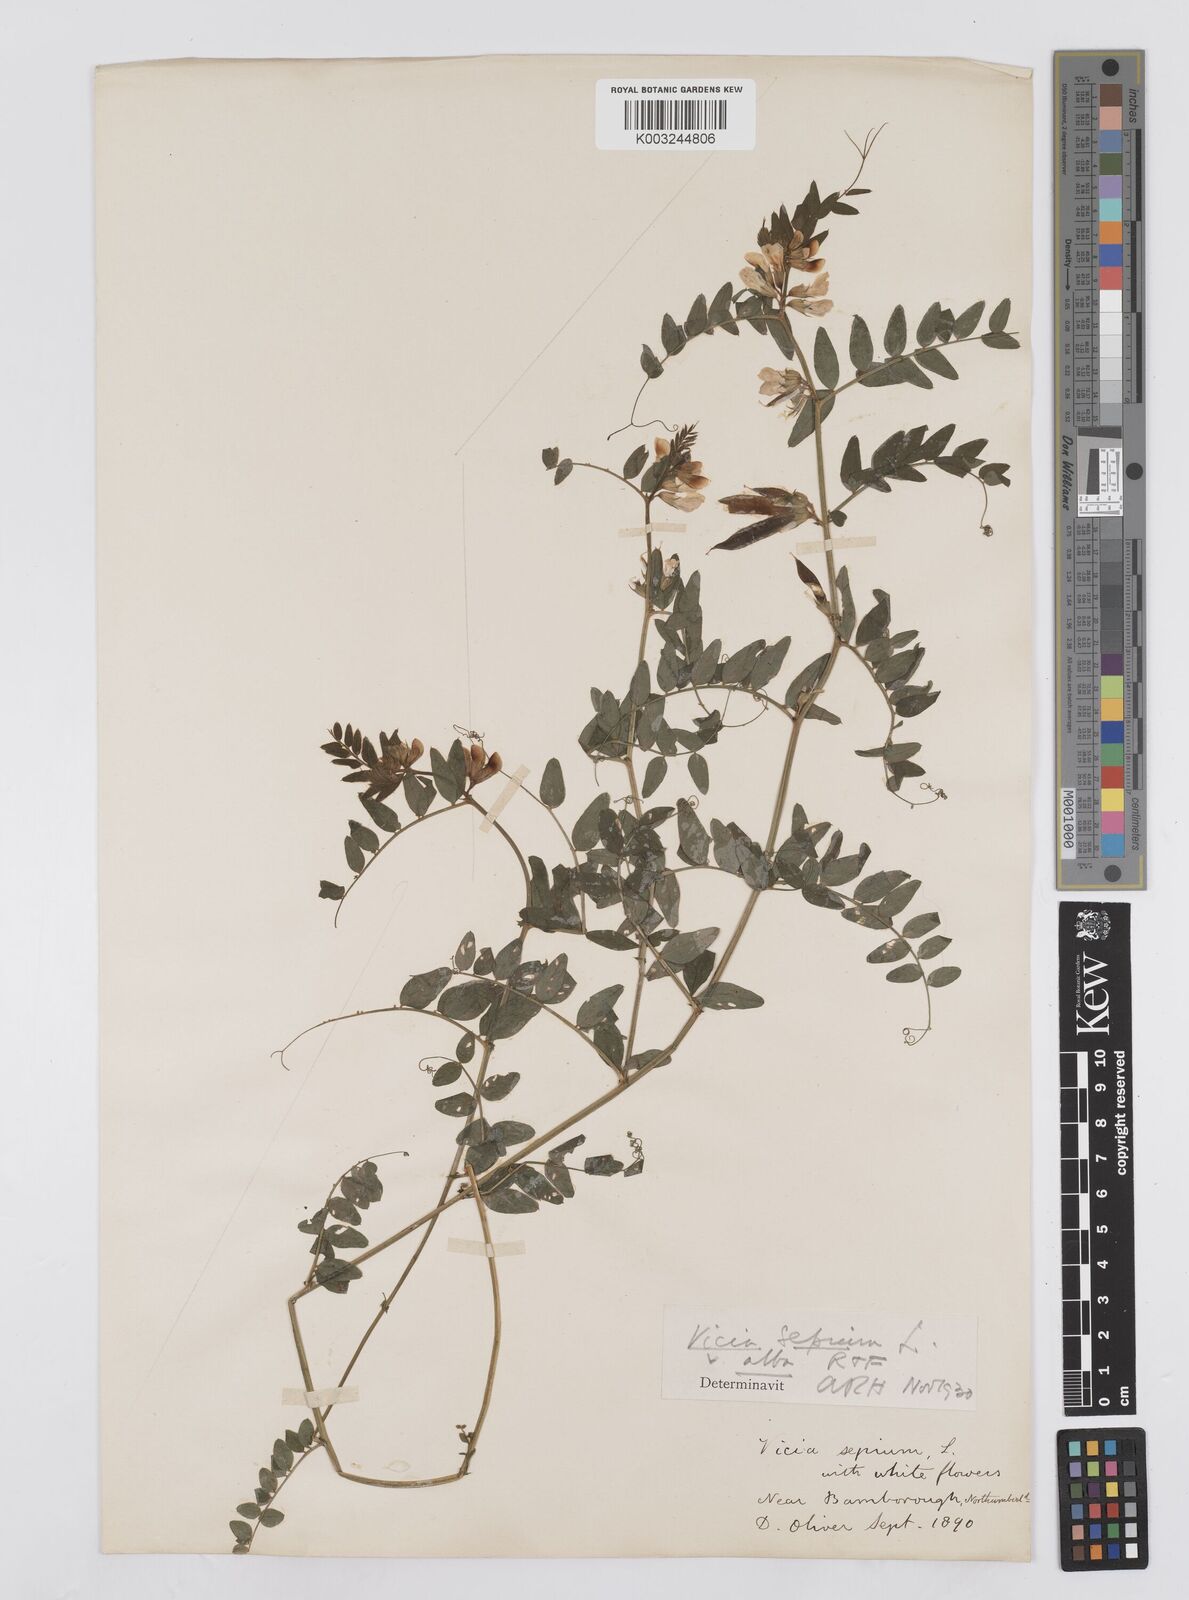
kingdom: Plantae
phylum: Tracheophyta
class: Magnoliopsida
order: Fabales
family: Fabaceae
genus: Vicia
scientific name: Vicia sepium
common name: Bush vetch
